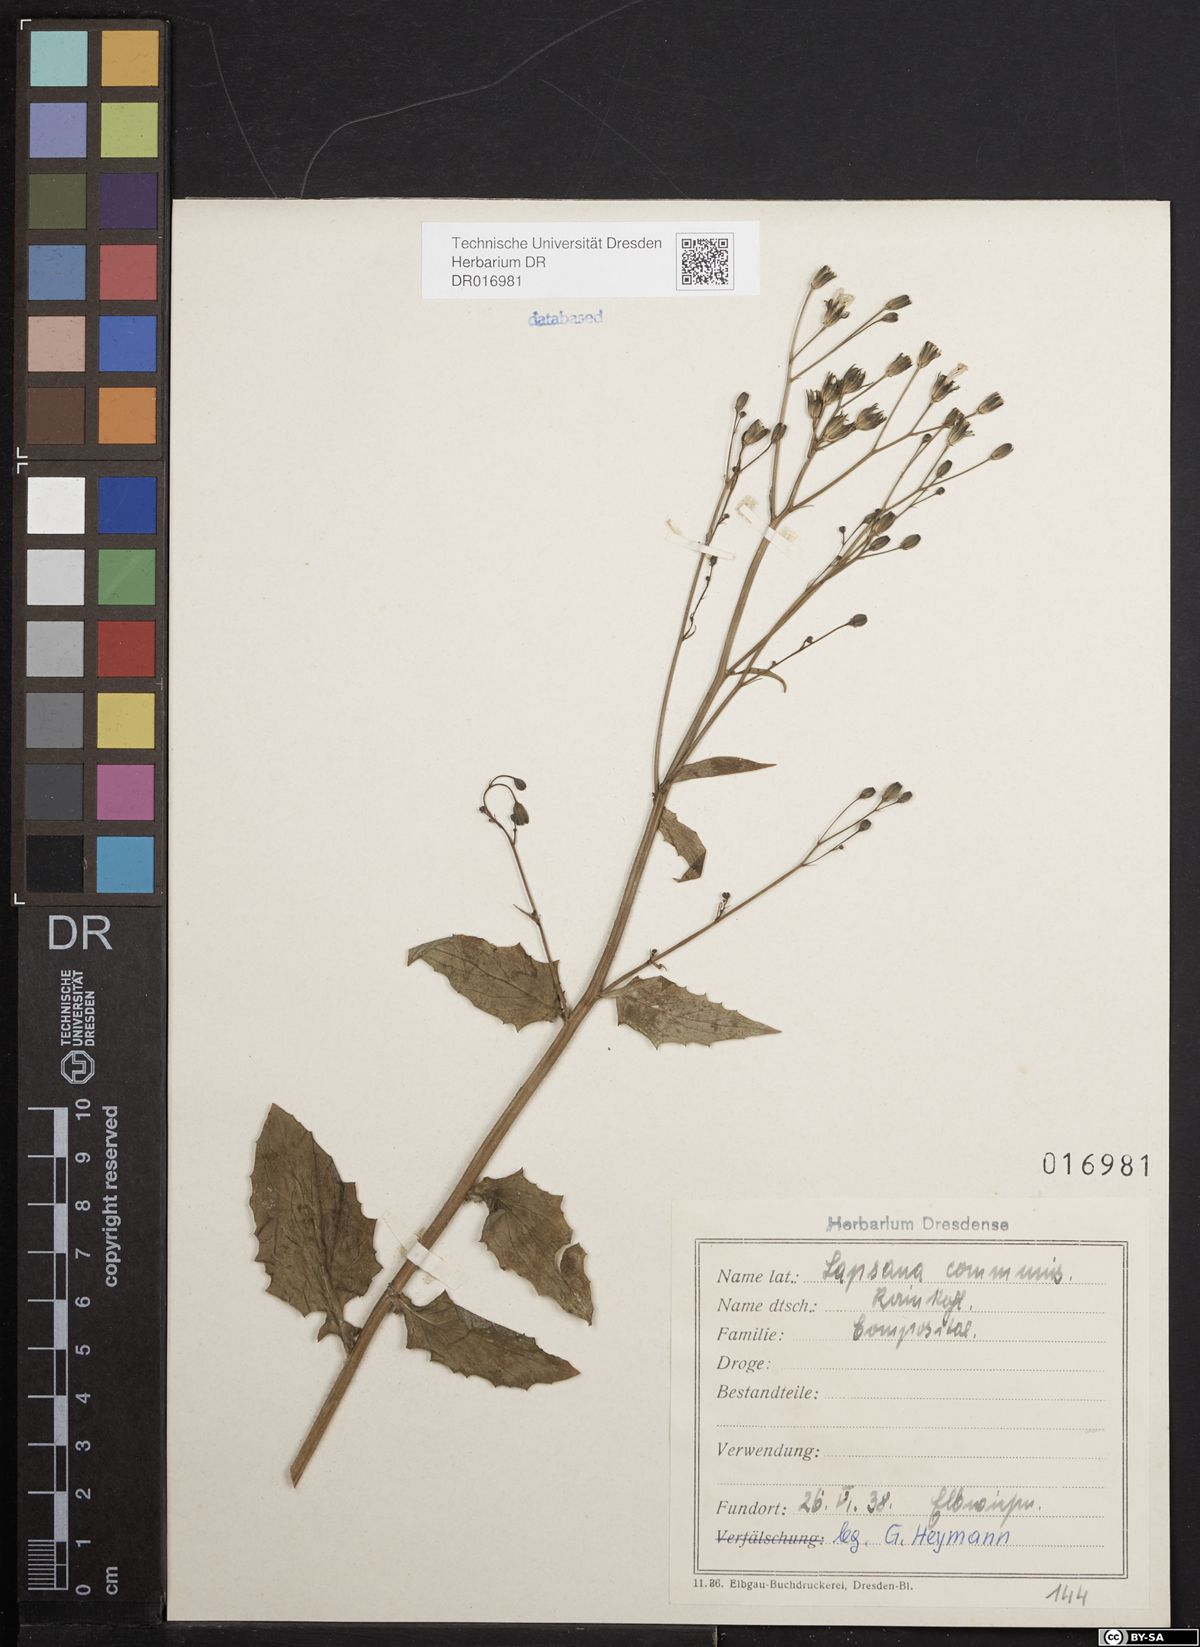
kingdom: Plantae
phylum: Tracheophyta
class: Magnoliopsida
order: Asterales
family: Asteraceae
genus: Lapsana
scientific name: Lapsana communis
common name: Nipplewort
